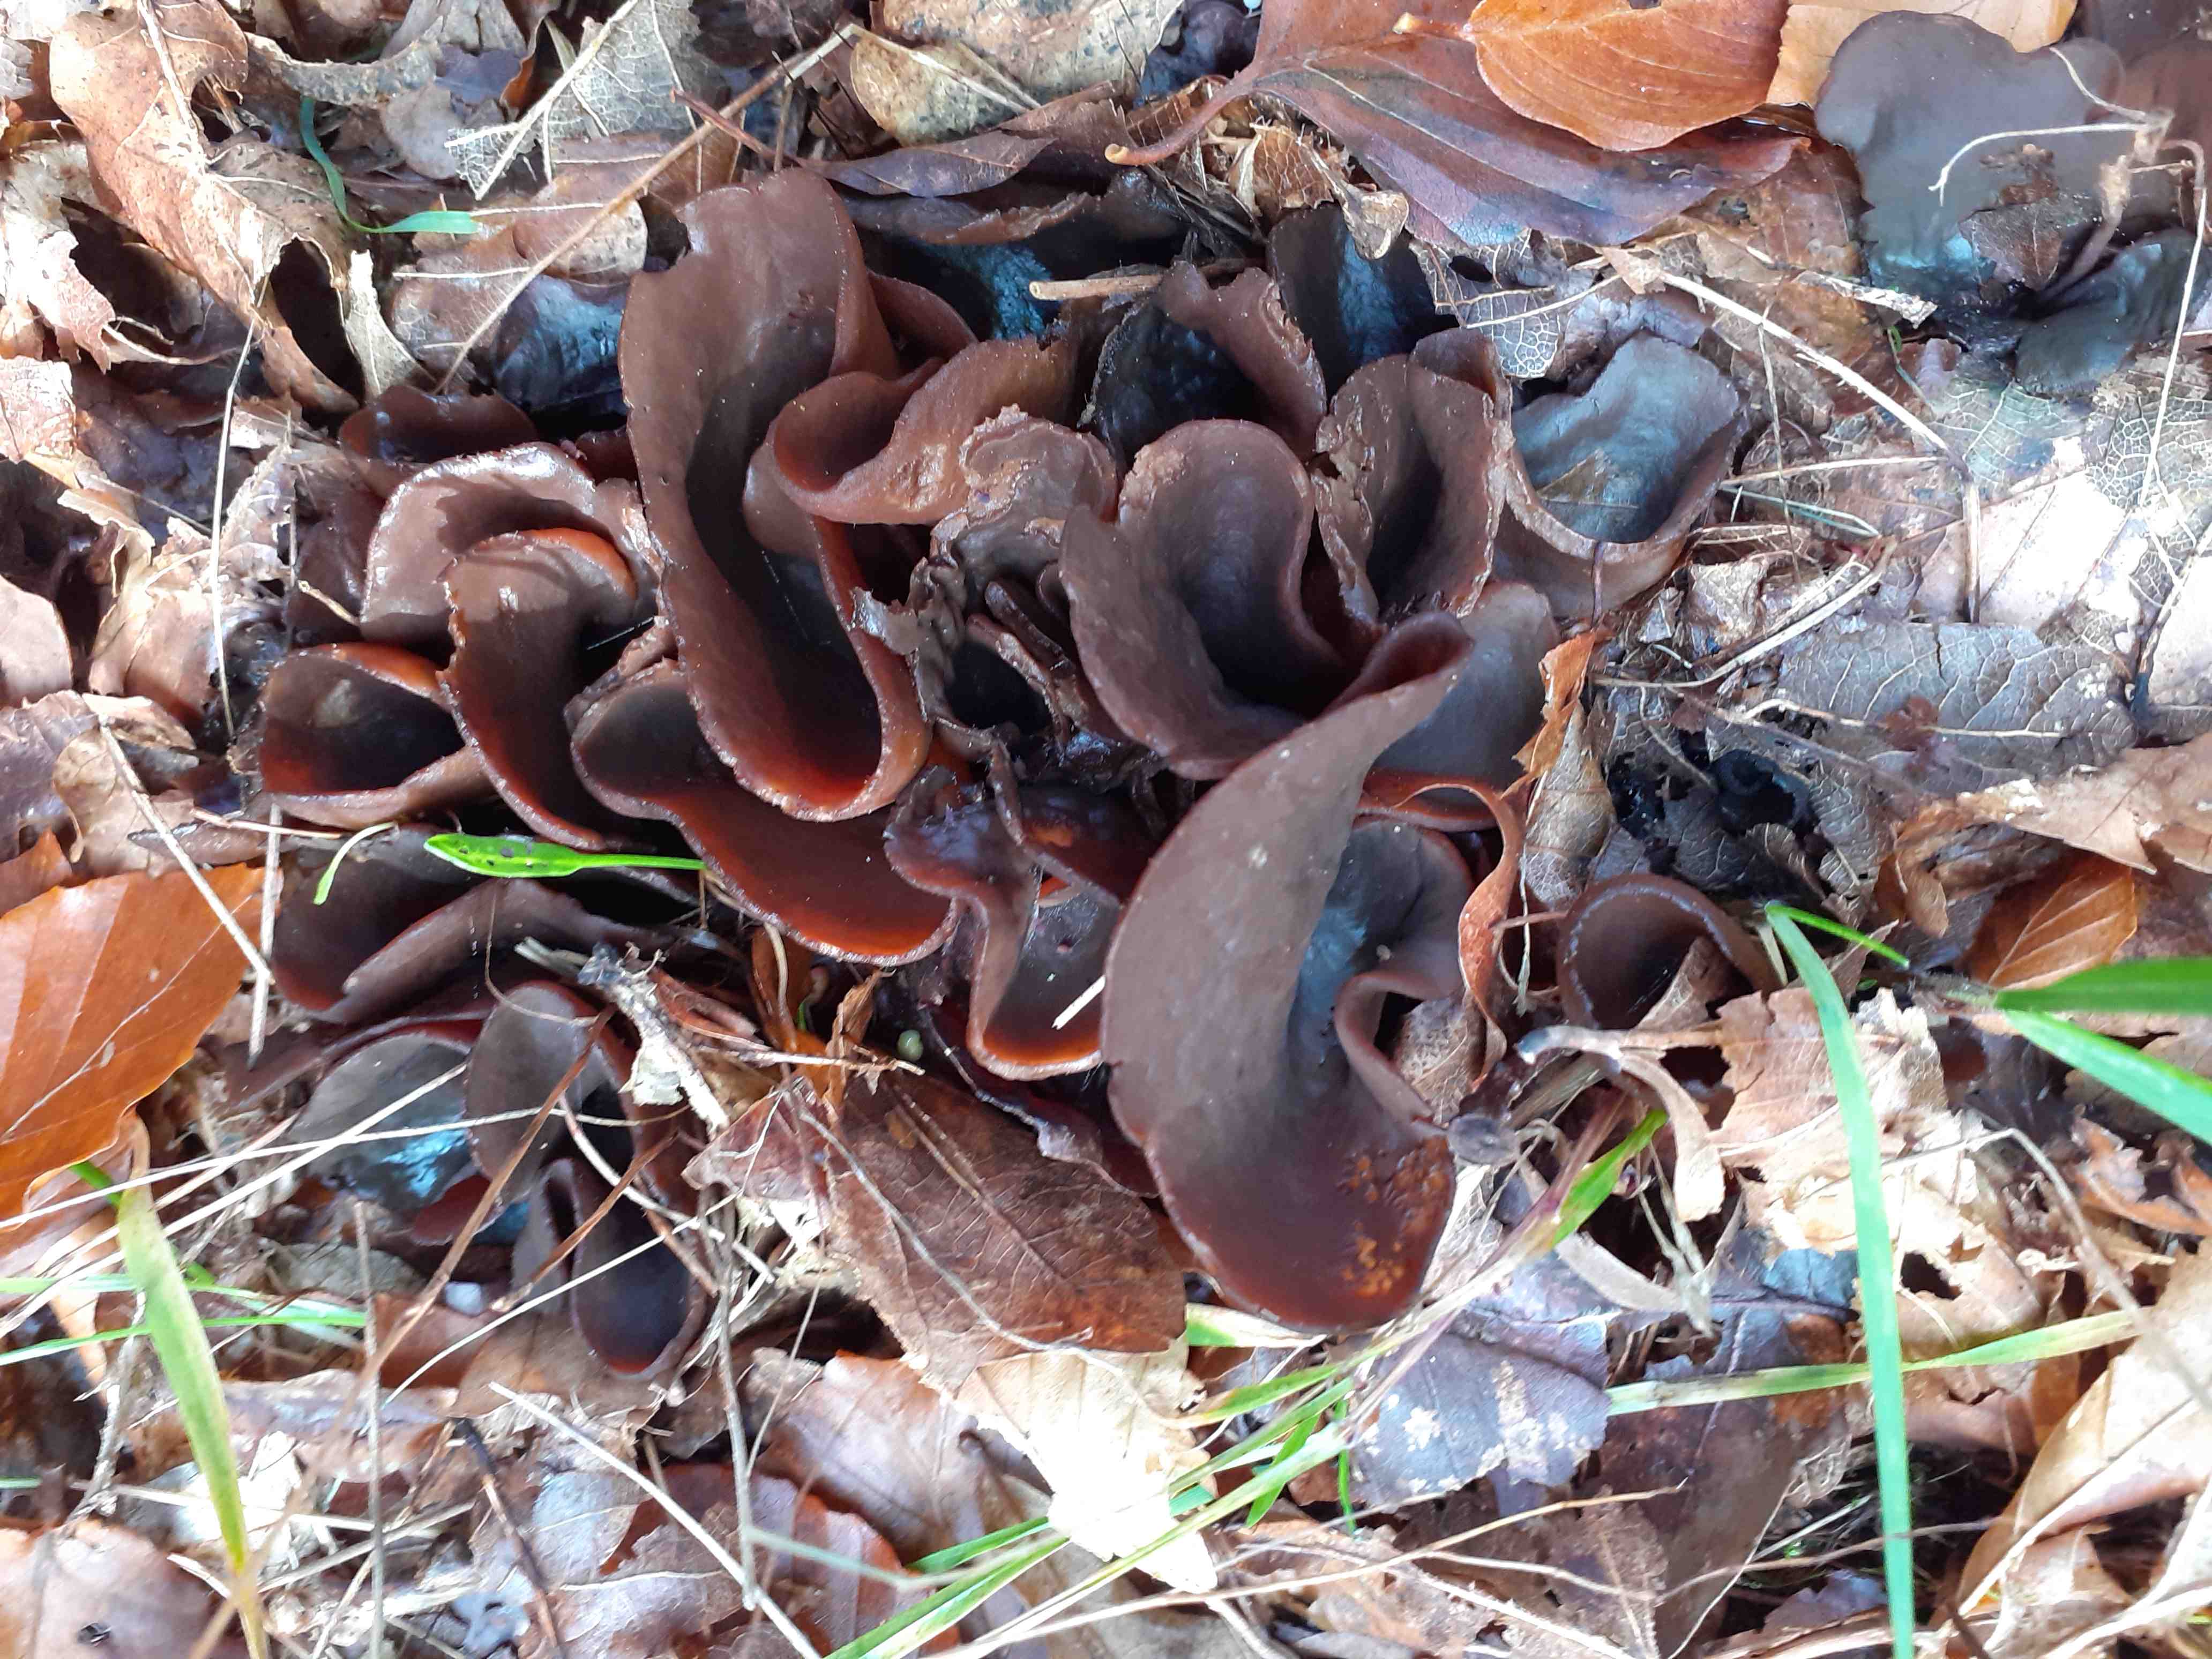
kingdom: Fungi
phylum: Ascomycota
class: Pezizomycetes
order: Pezizales
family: Otideaceae
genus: Otidea
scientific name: Otidea bufonia
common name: brun ørebæger
